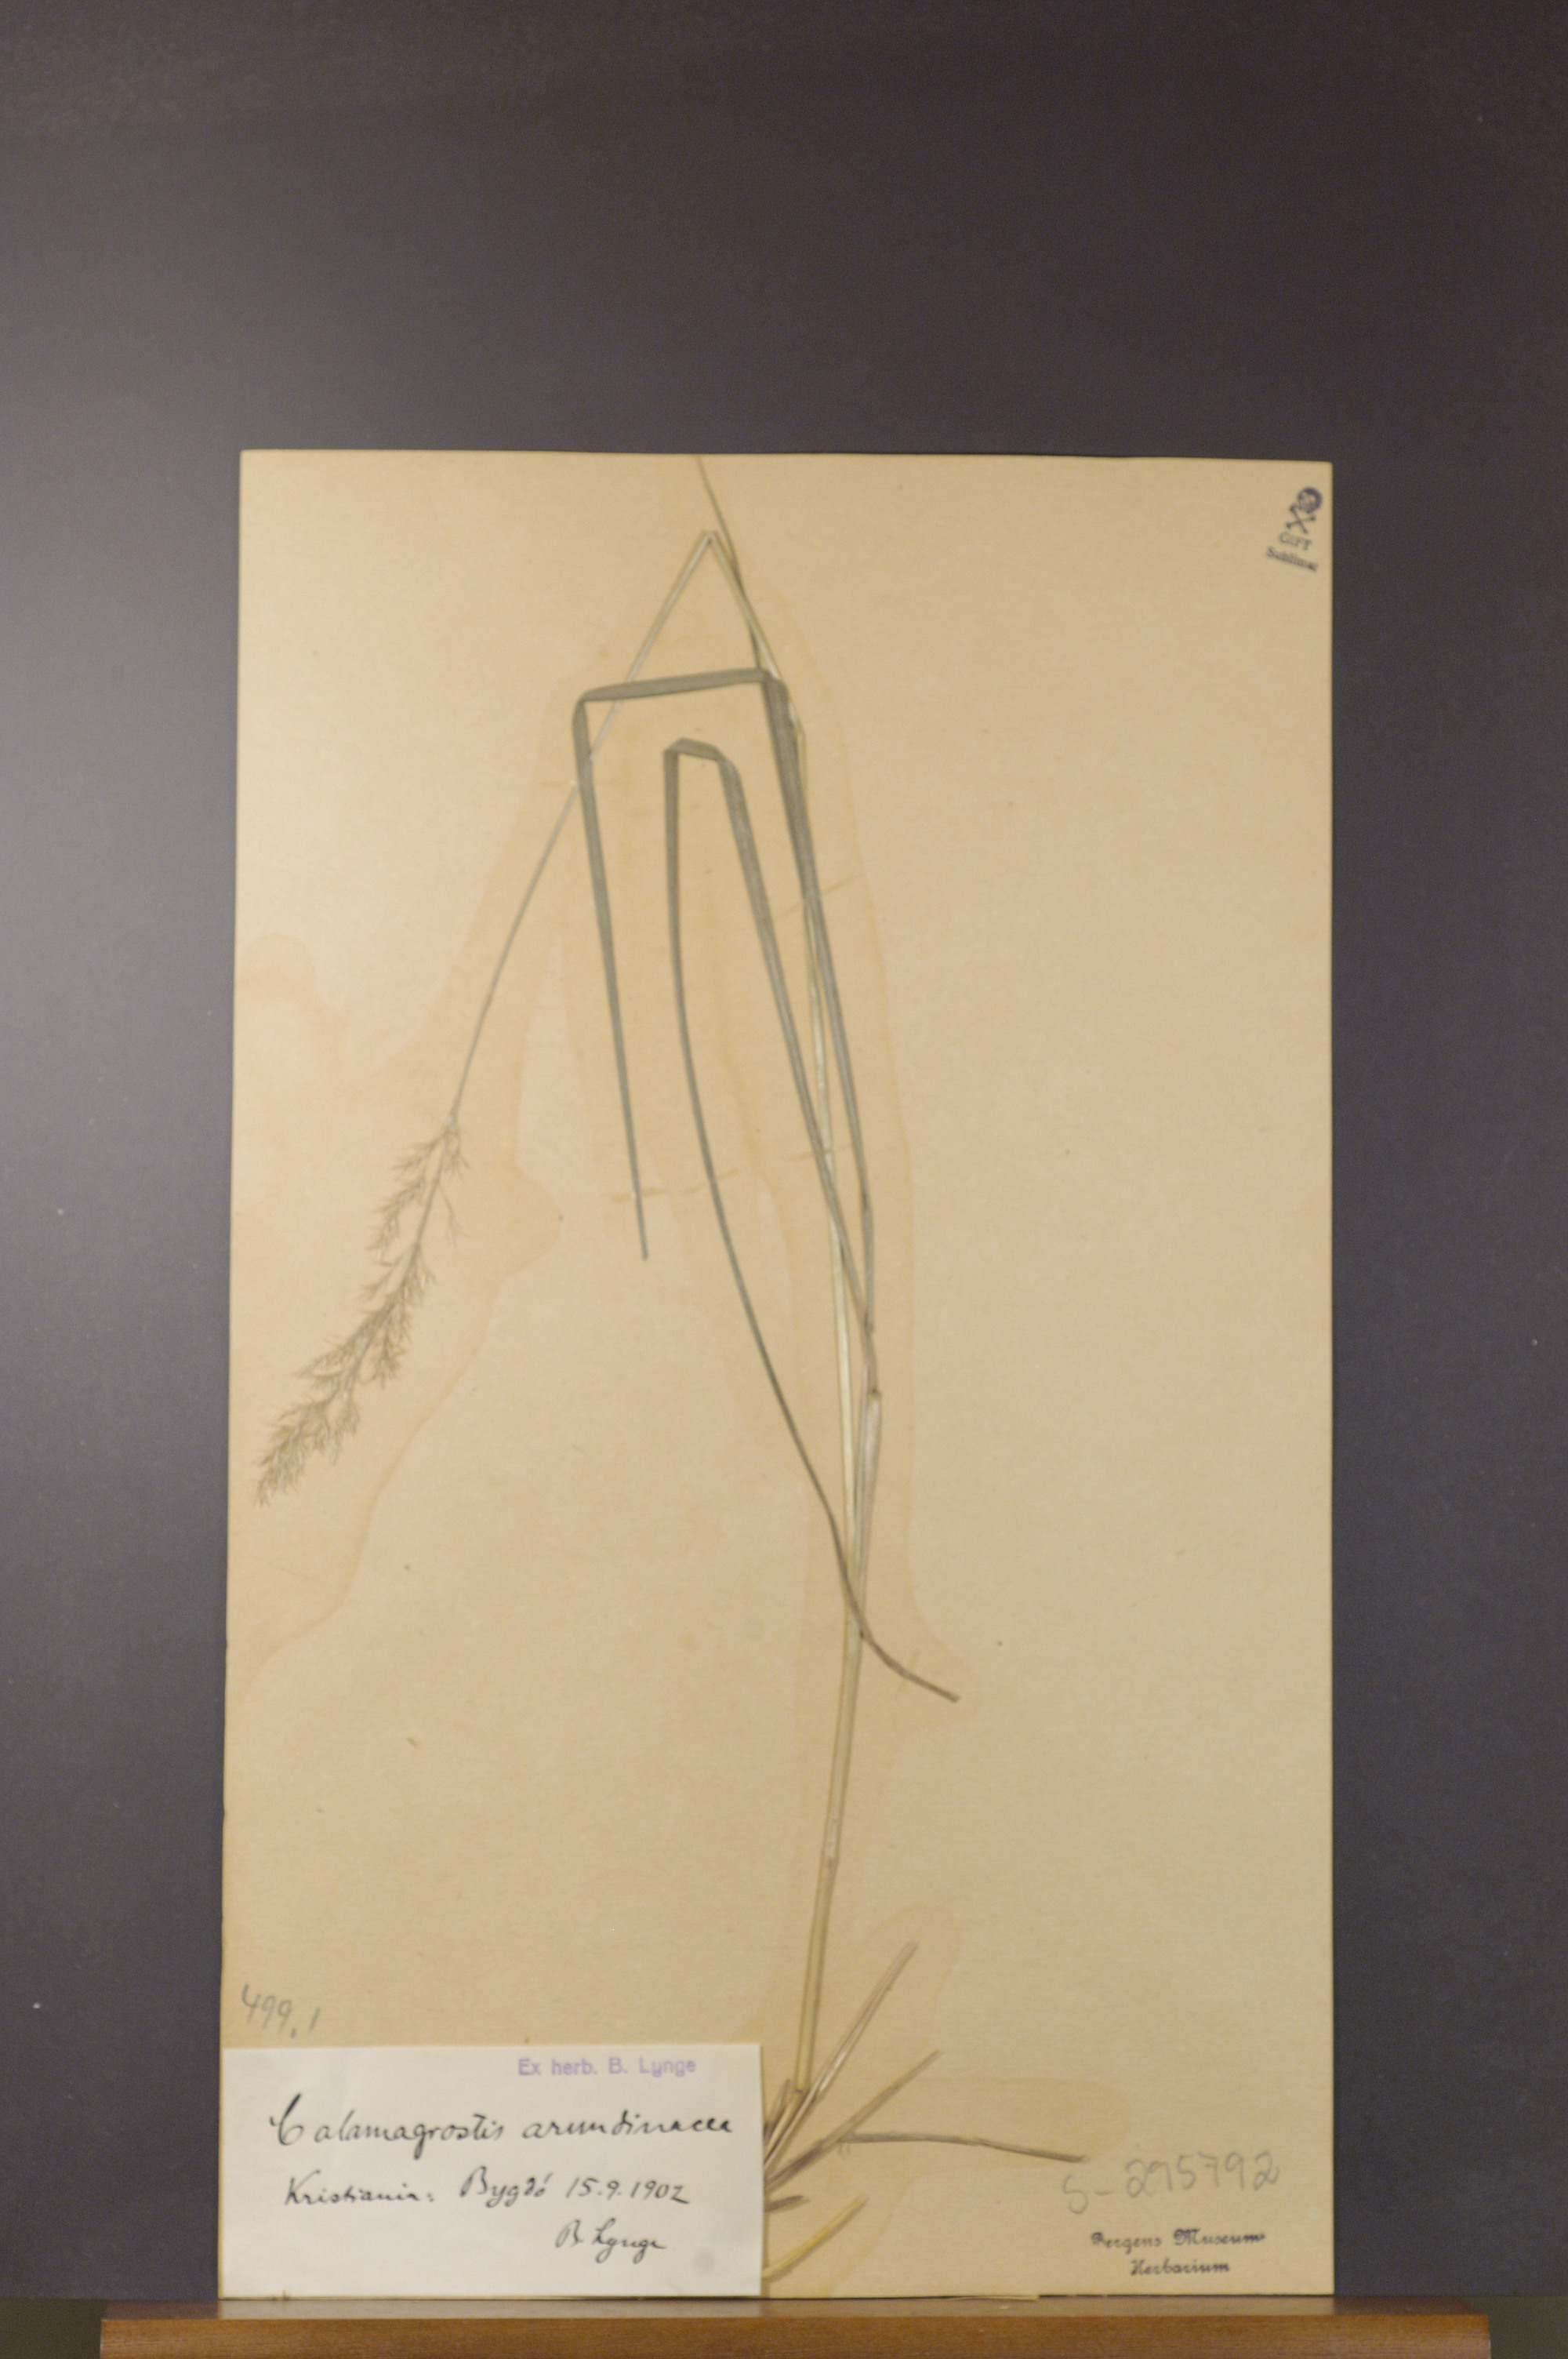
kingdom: Plantae
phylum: Tracheophyta
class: Liliopsida
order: Poales
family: Poaceae
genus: Calamagrostis
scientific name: Calamagrostis arundinacea
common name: Metskastik
